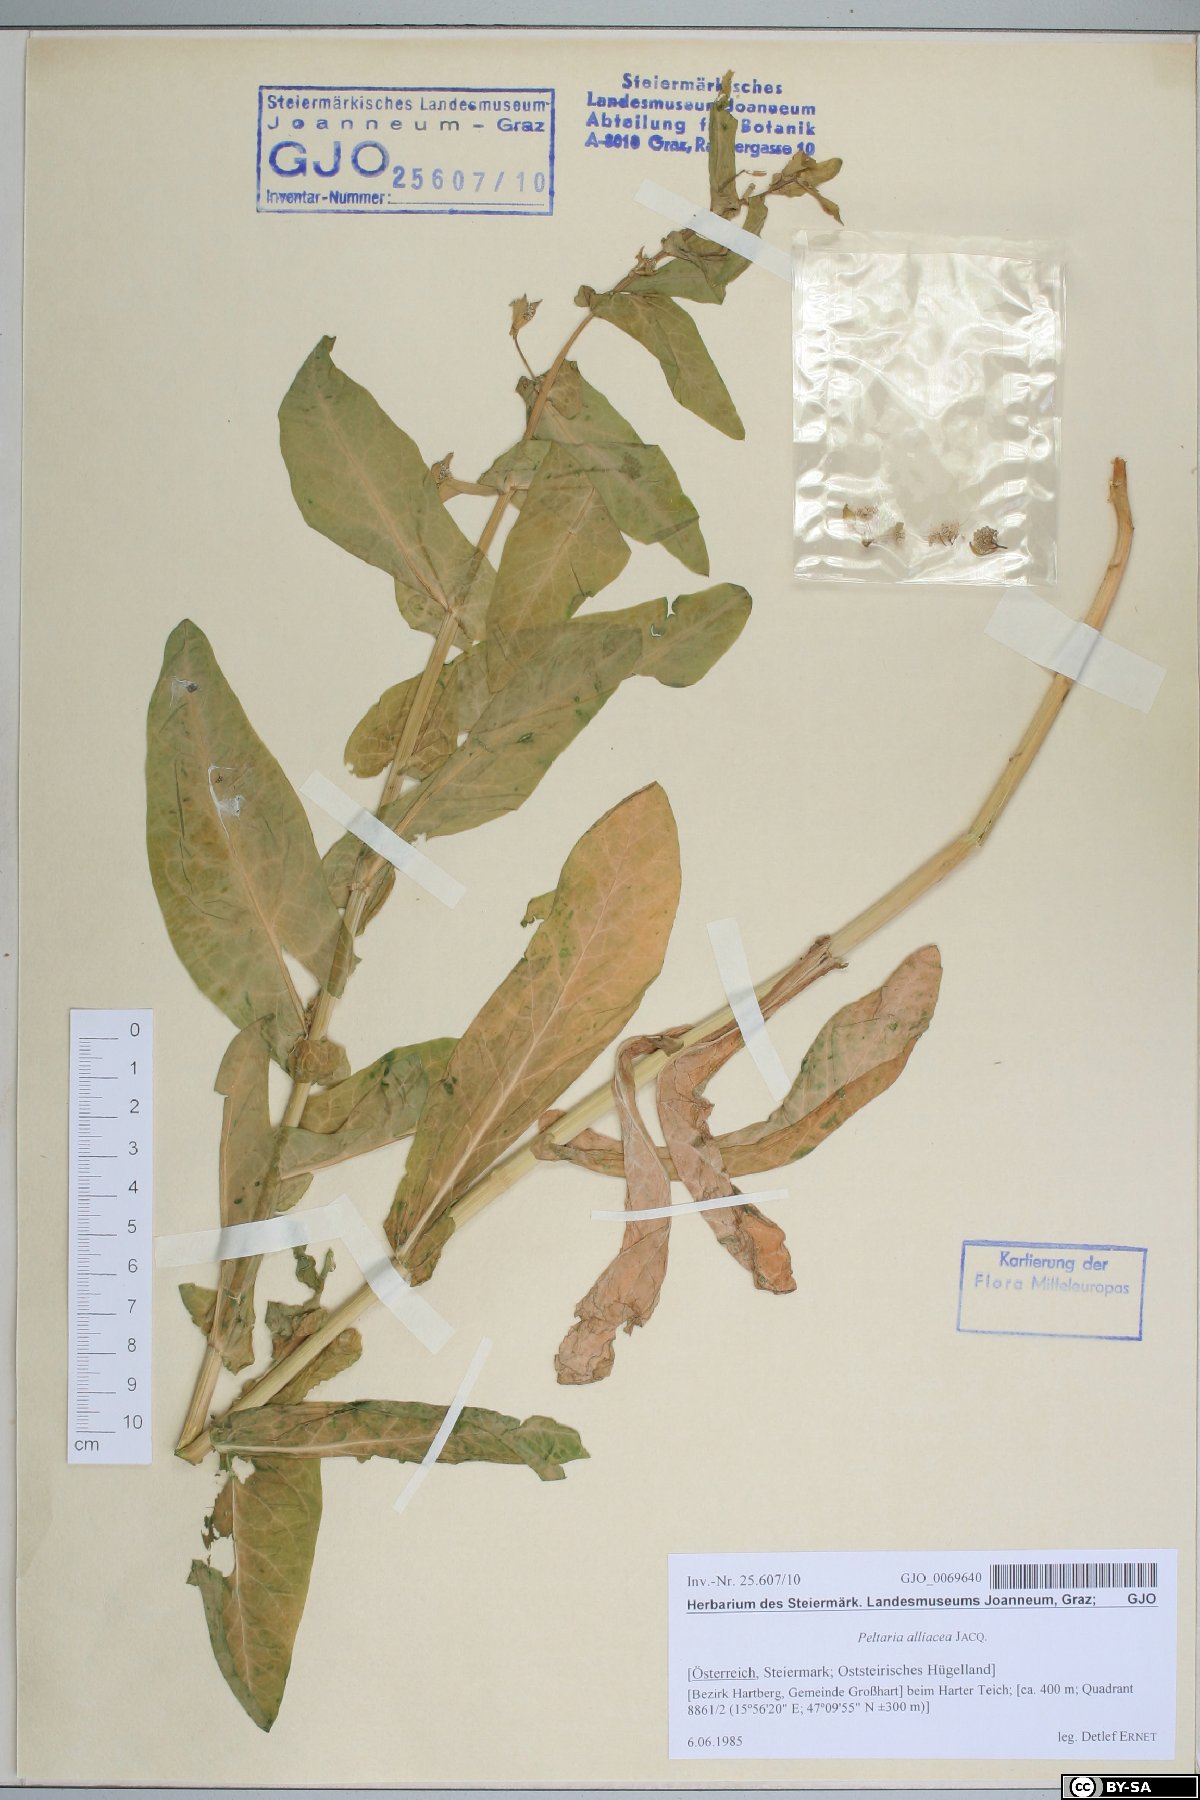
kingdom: Plantae
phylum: Tracheophyta
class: Magnoliopsida
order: Brassicales
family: Brassicaceae
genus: Peltaria
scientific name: Peltaria alliacea
